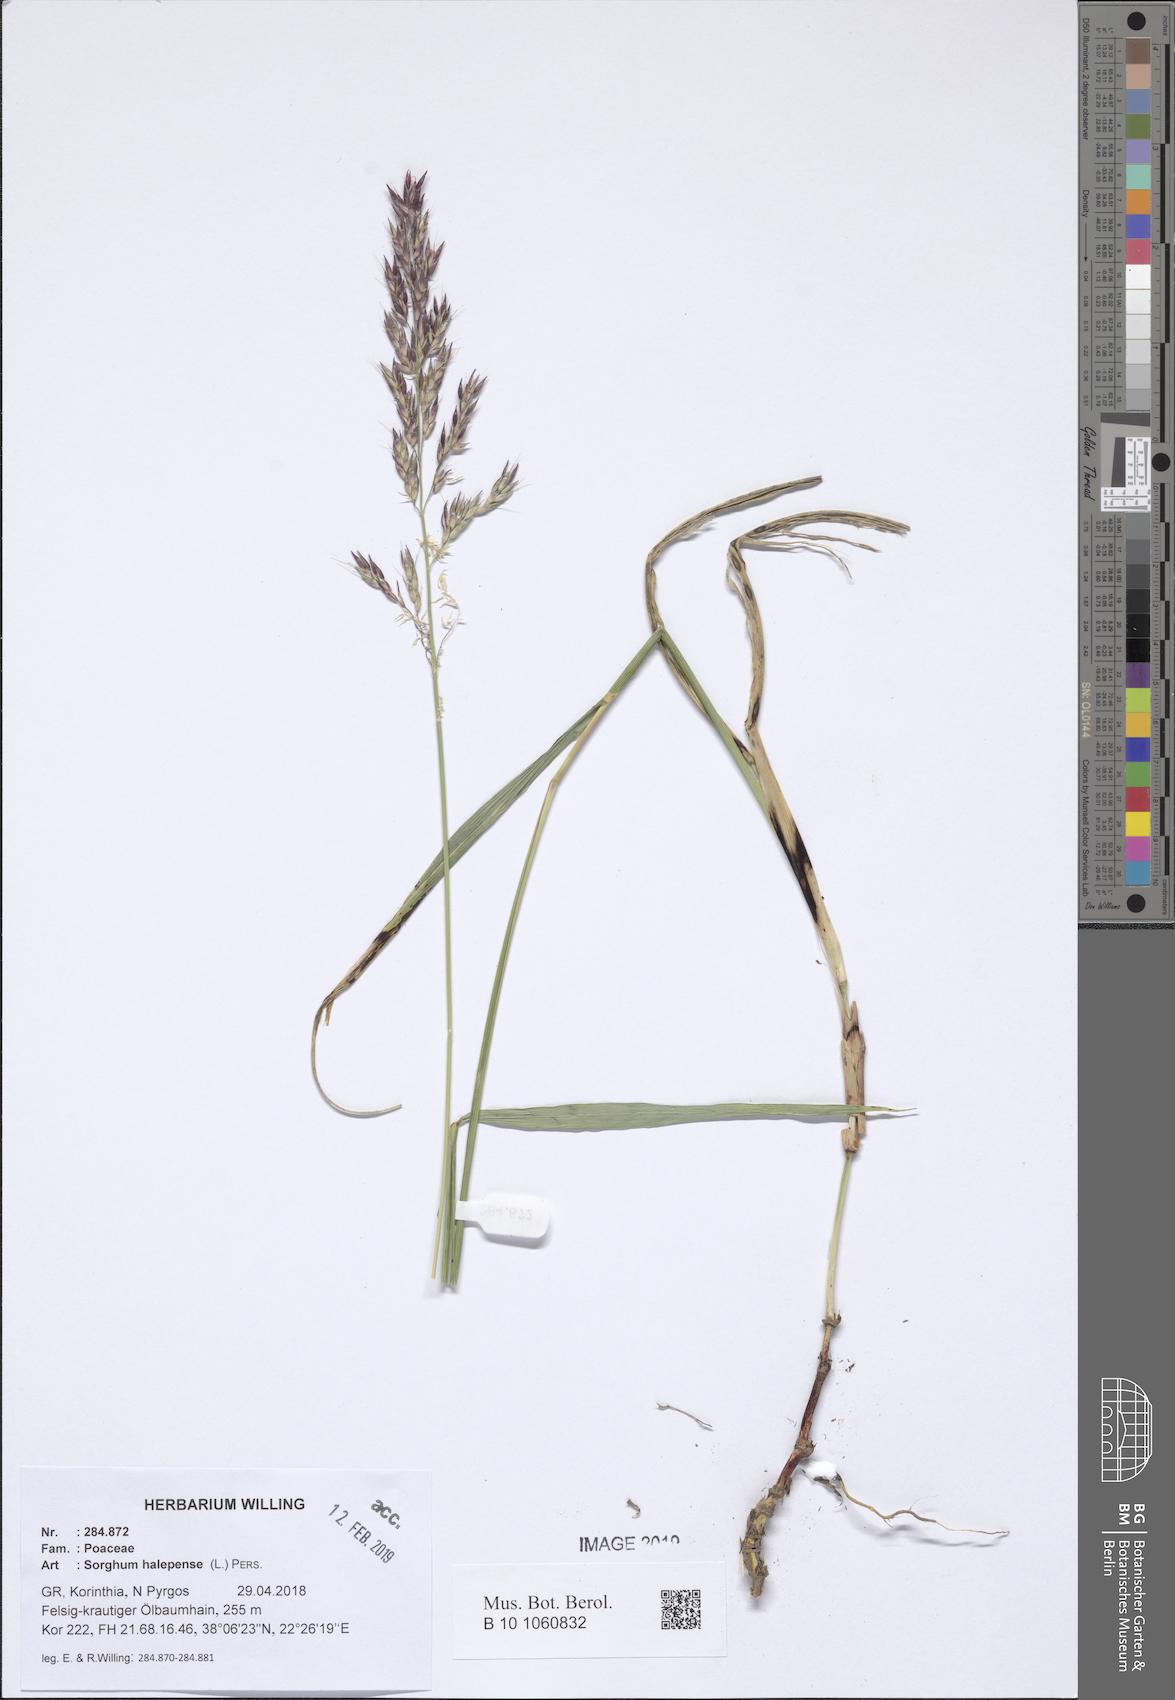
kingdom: Plantae
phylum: Tracheophyta
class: Liliopsida
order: Poales
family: Poaceae
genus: Sorghum
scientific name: Sorghum halepense
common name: Johnson-grass
